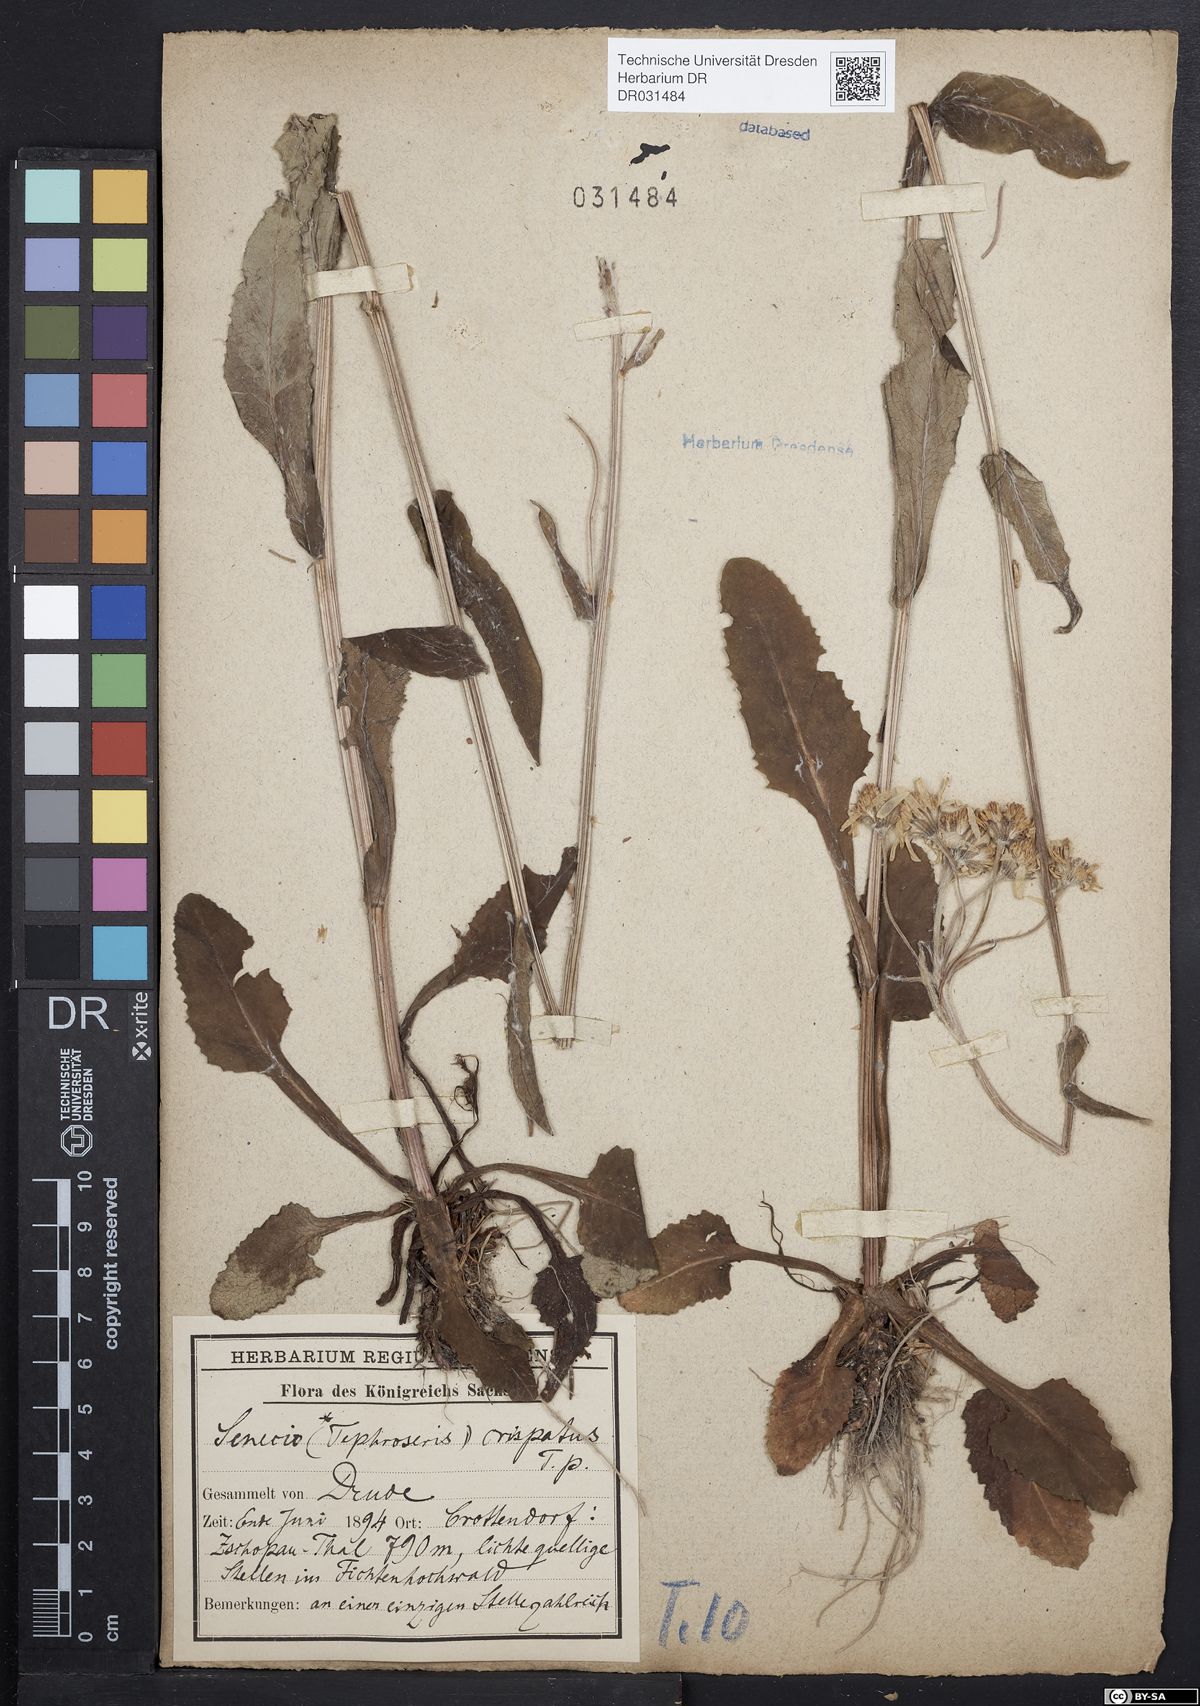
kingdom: Plantae
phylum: Tracheophyta
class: Magnoliopsida
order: Asterales
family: Asteraceae
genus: Tephroseris
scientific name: Tephroseris crispa
